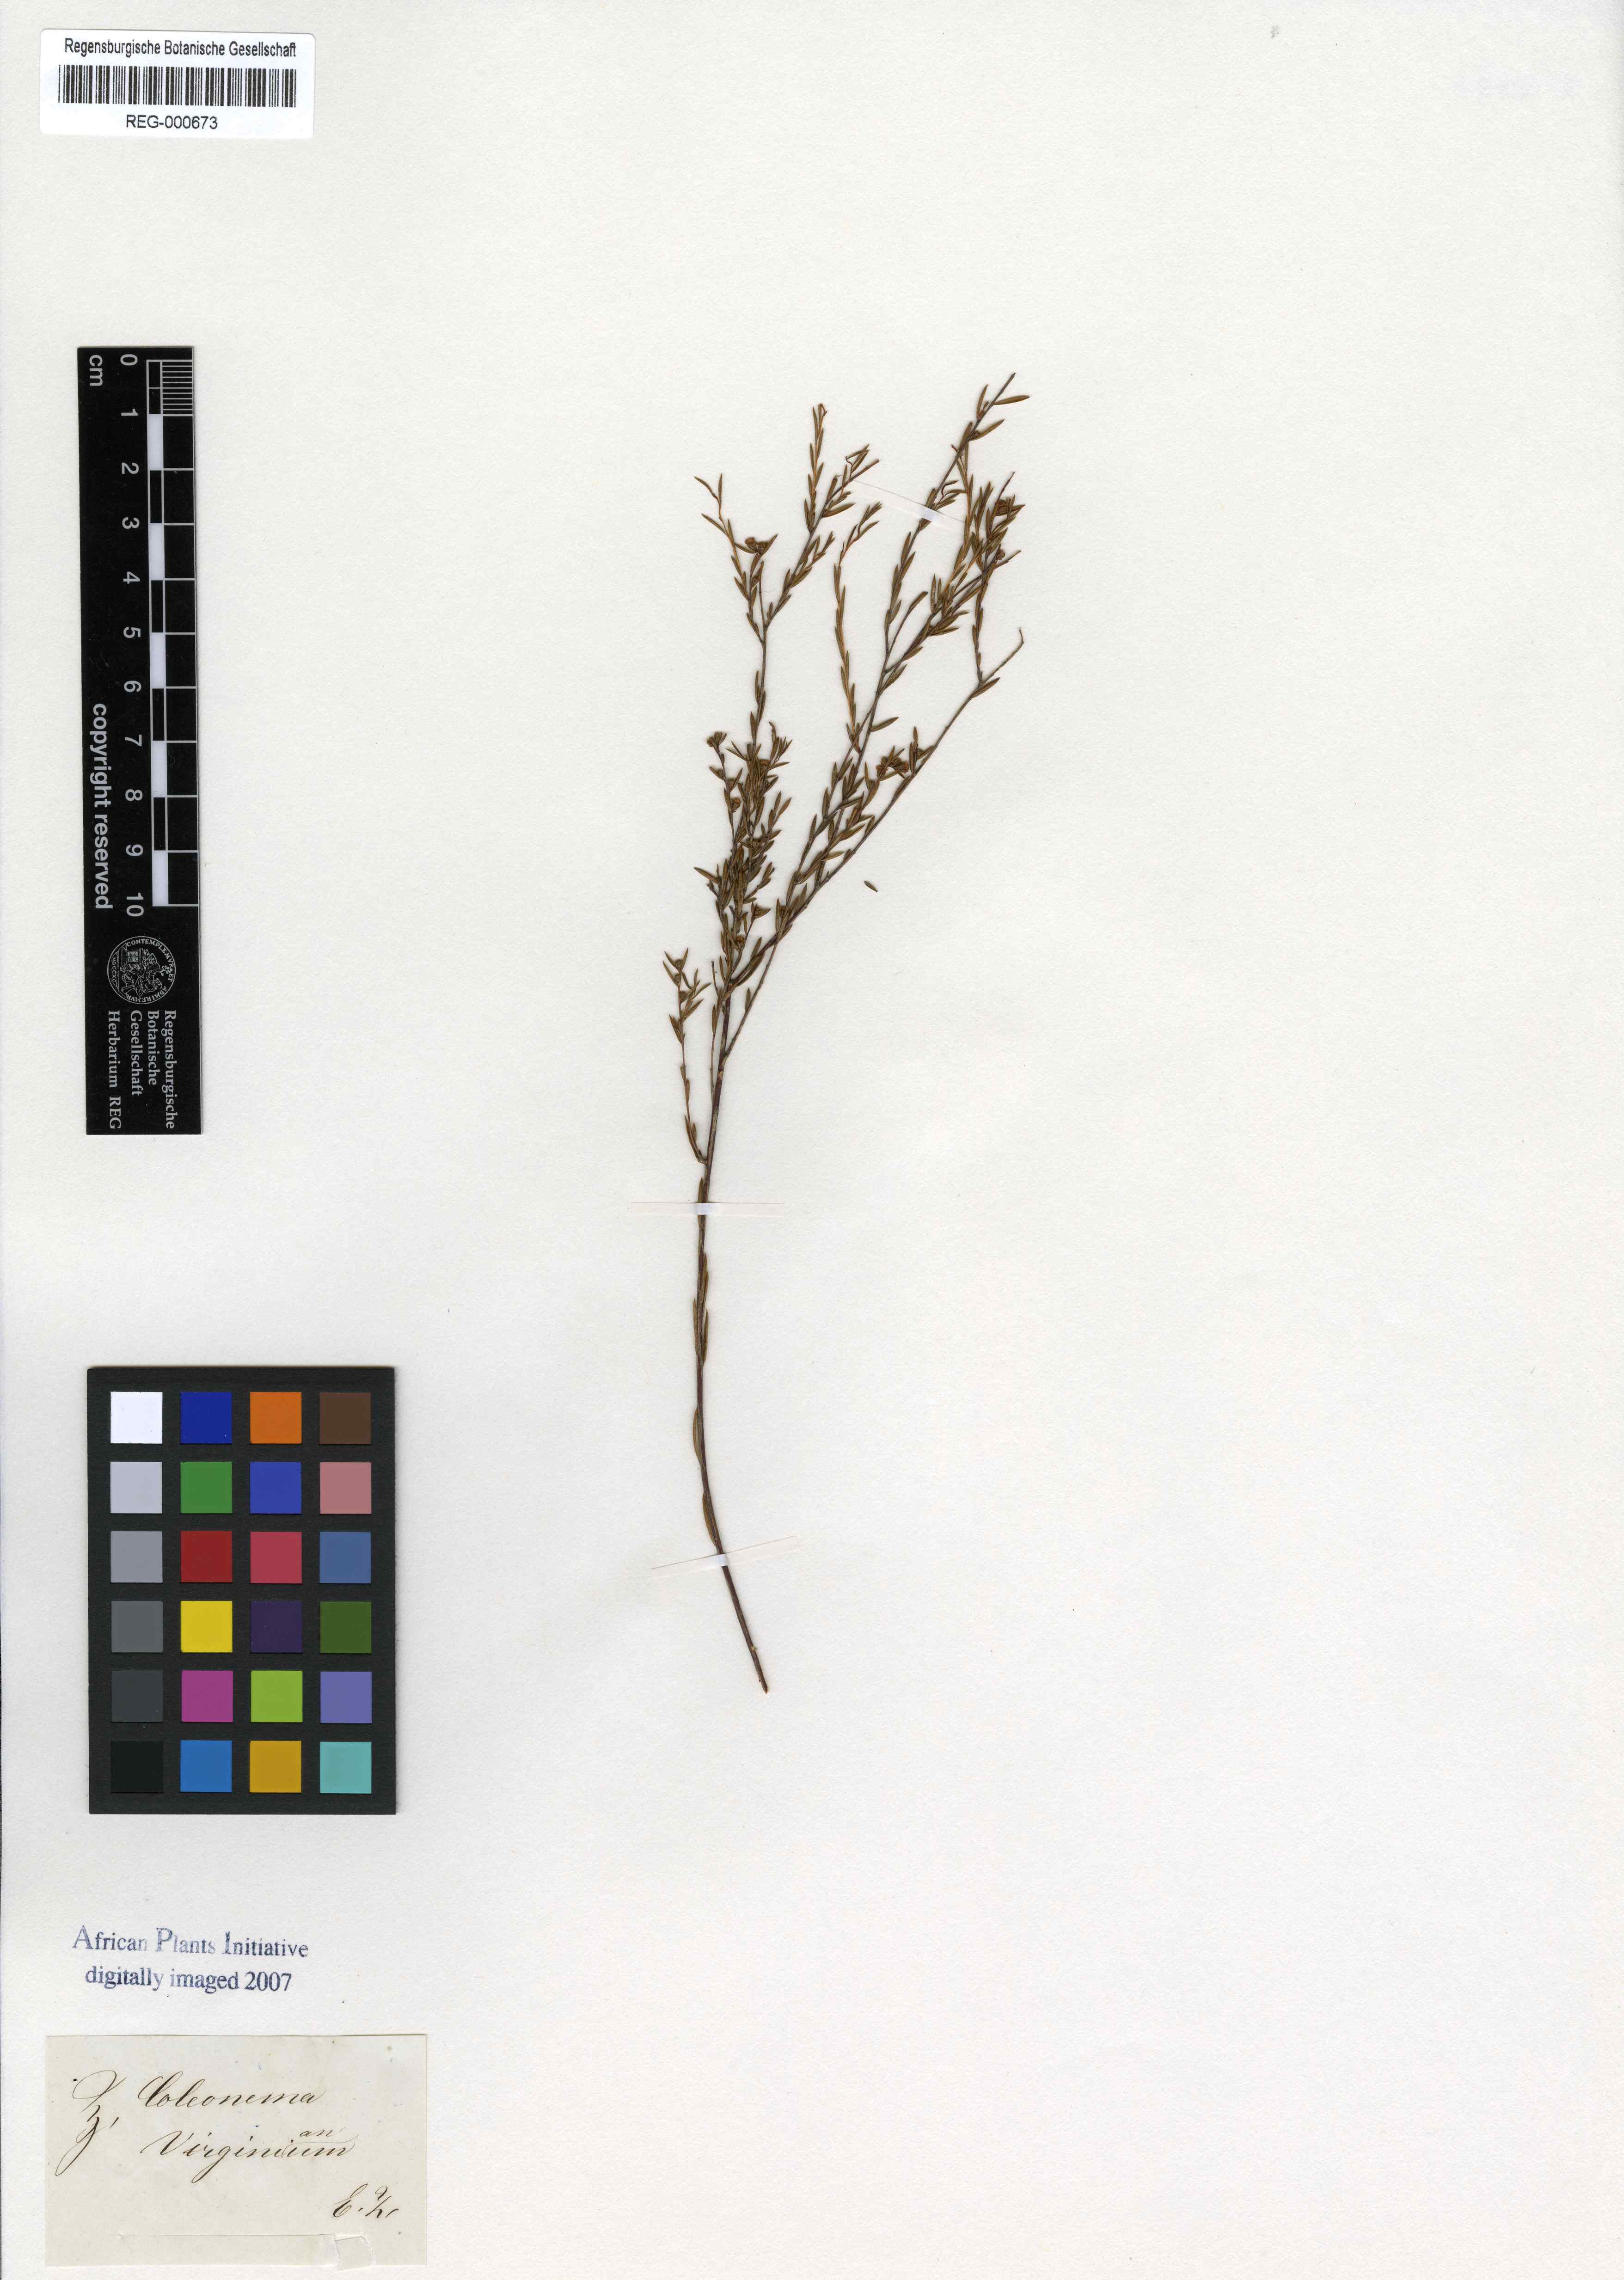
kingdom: Plantae
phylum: Tracheophyta
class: Magnoliopsida
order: Sapindales
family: Rutaceae
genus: Coleonema
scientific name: Coleonema juniperinum
